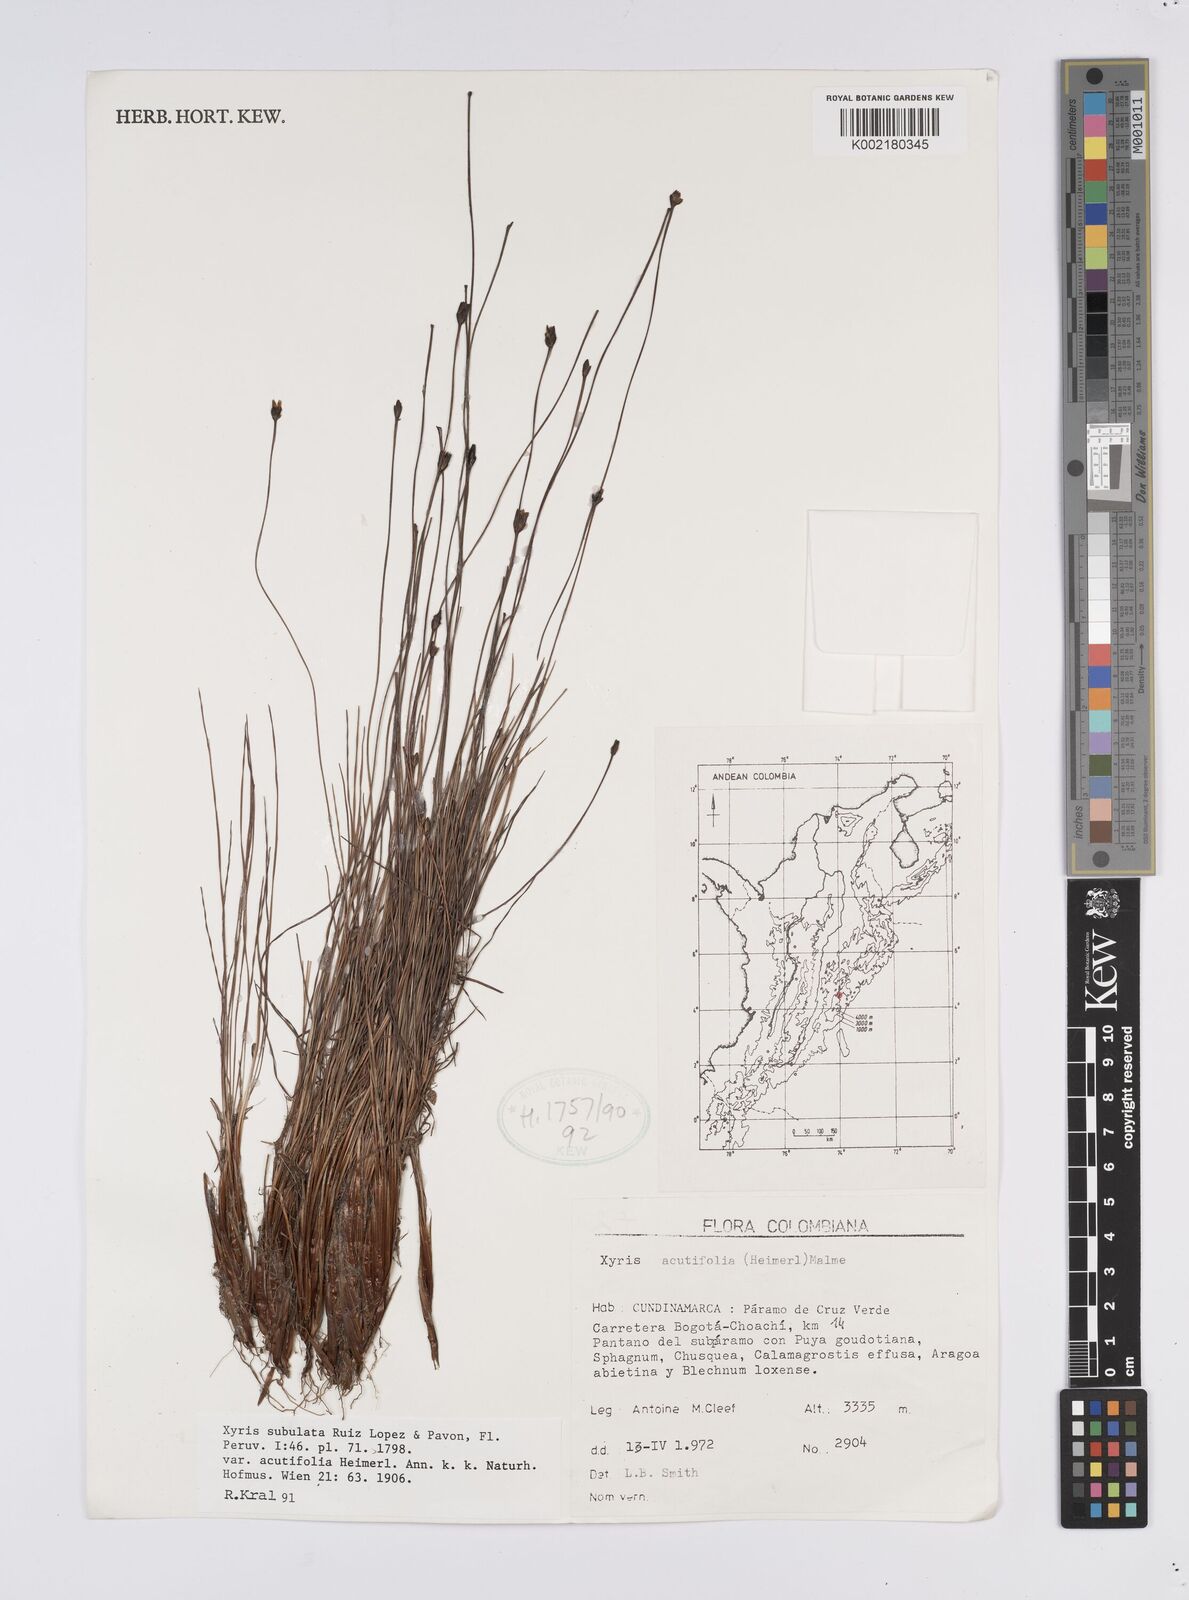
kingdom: Plantae
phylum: Tracheophyta
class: Liliopsida
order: Poales
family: Xyridaceae
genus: Xyris
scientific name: Xyris subulata
